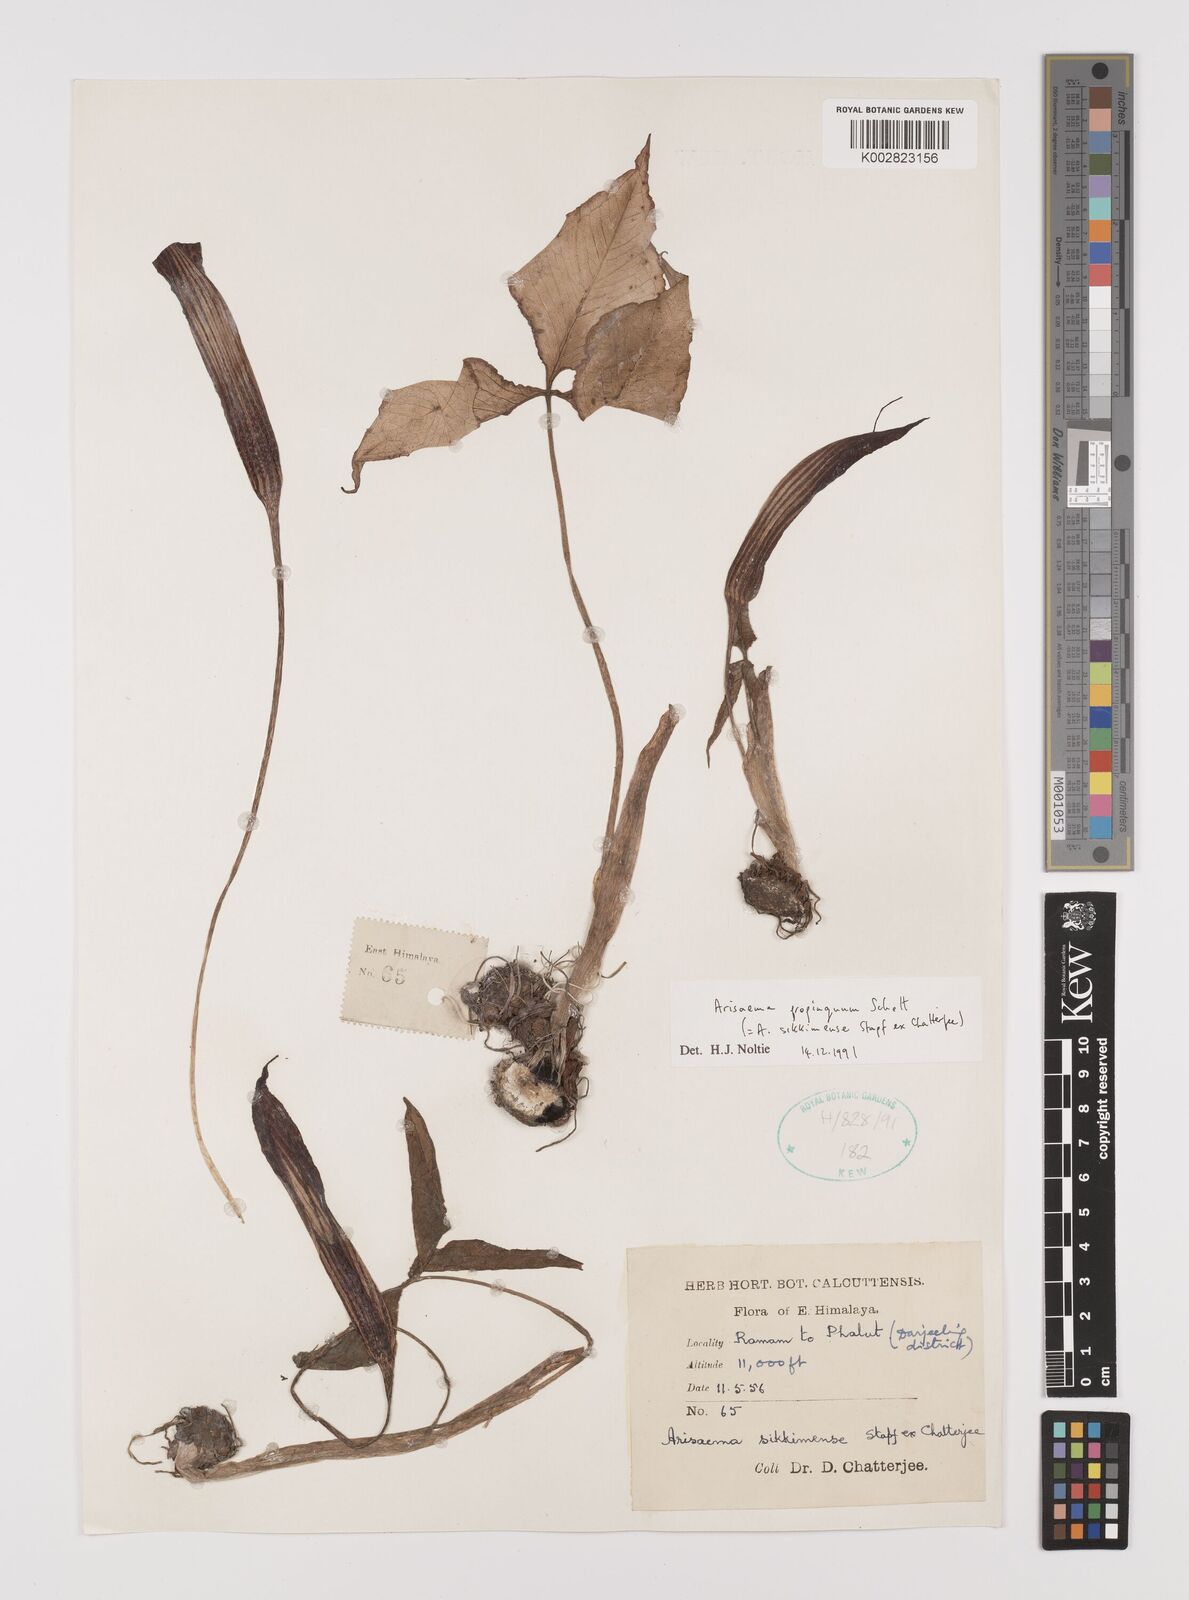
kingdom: Plantae
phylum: Tracheophyta
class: Liliopsida
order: Alismatales
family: Araceae
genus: Arisaema
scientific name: Arisaema propinquum
